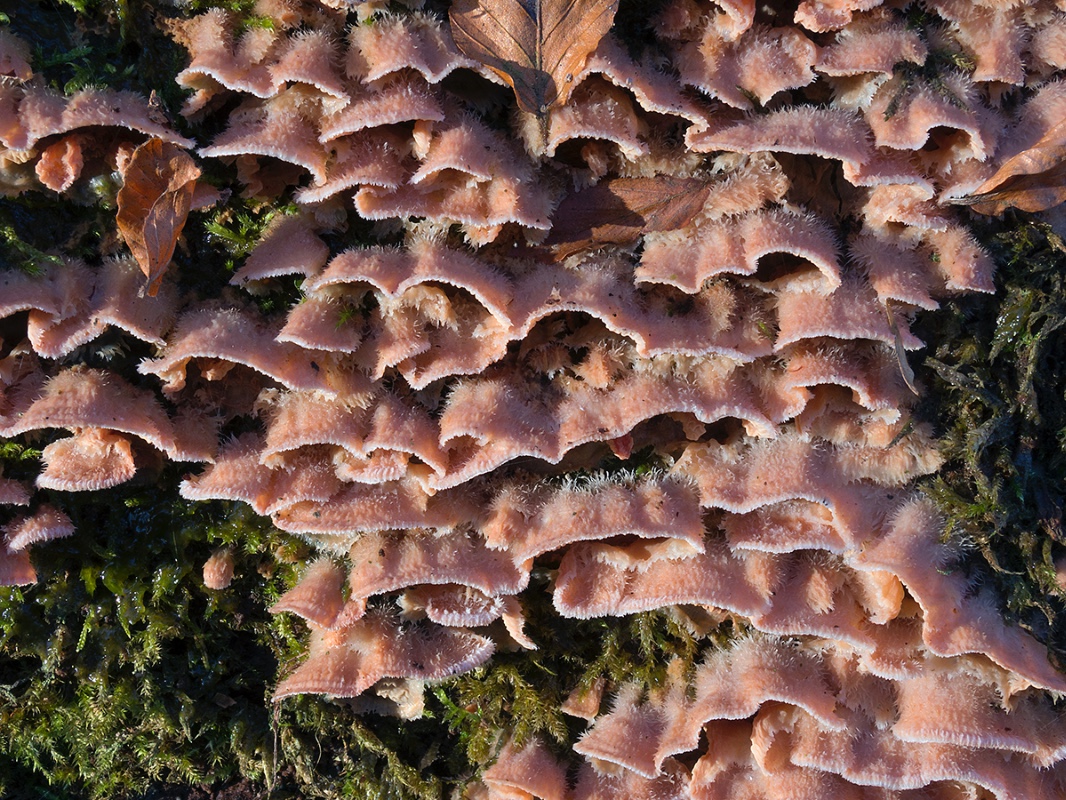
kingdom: Fungi
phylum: Basidiomycota
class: Agaricomycetes
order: Polyporales
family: Meruliaceae
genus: Phlebia
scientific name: Phlebia tremellosa
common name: bævrende åresvamp
